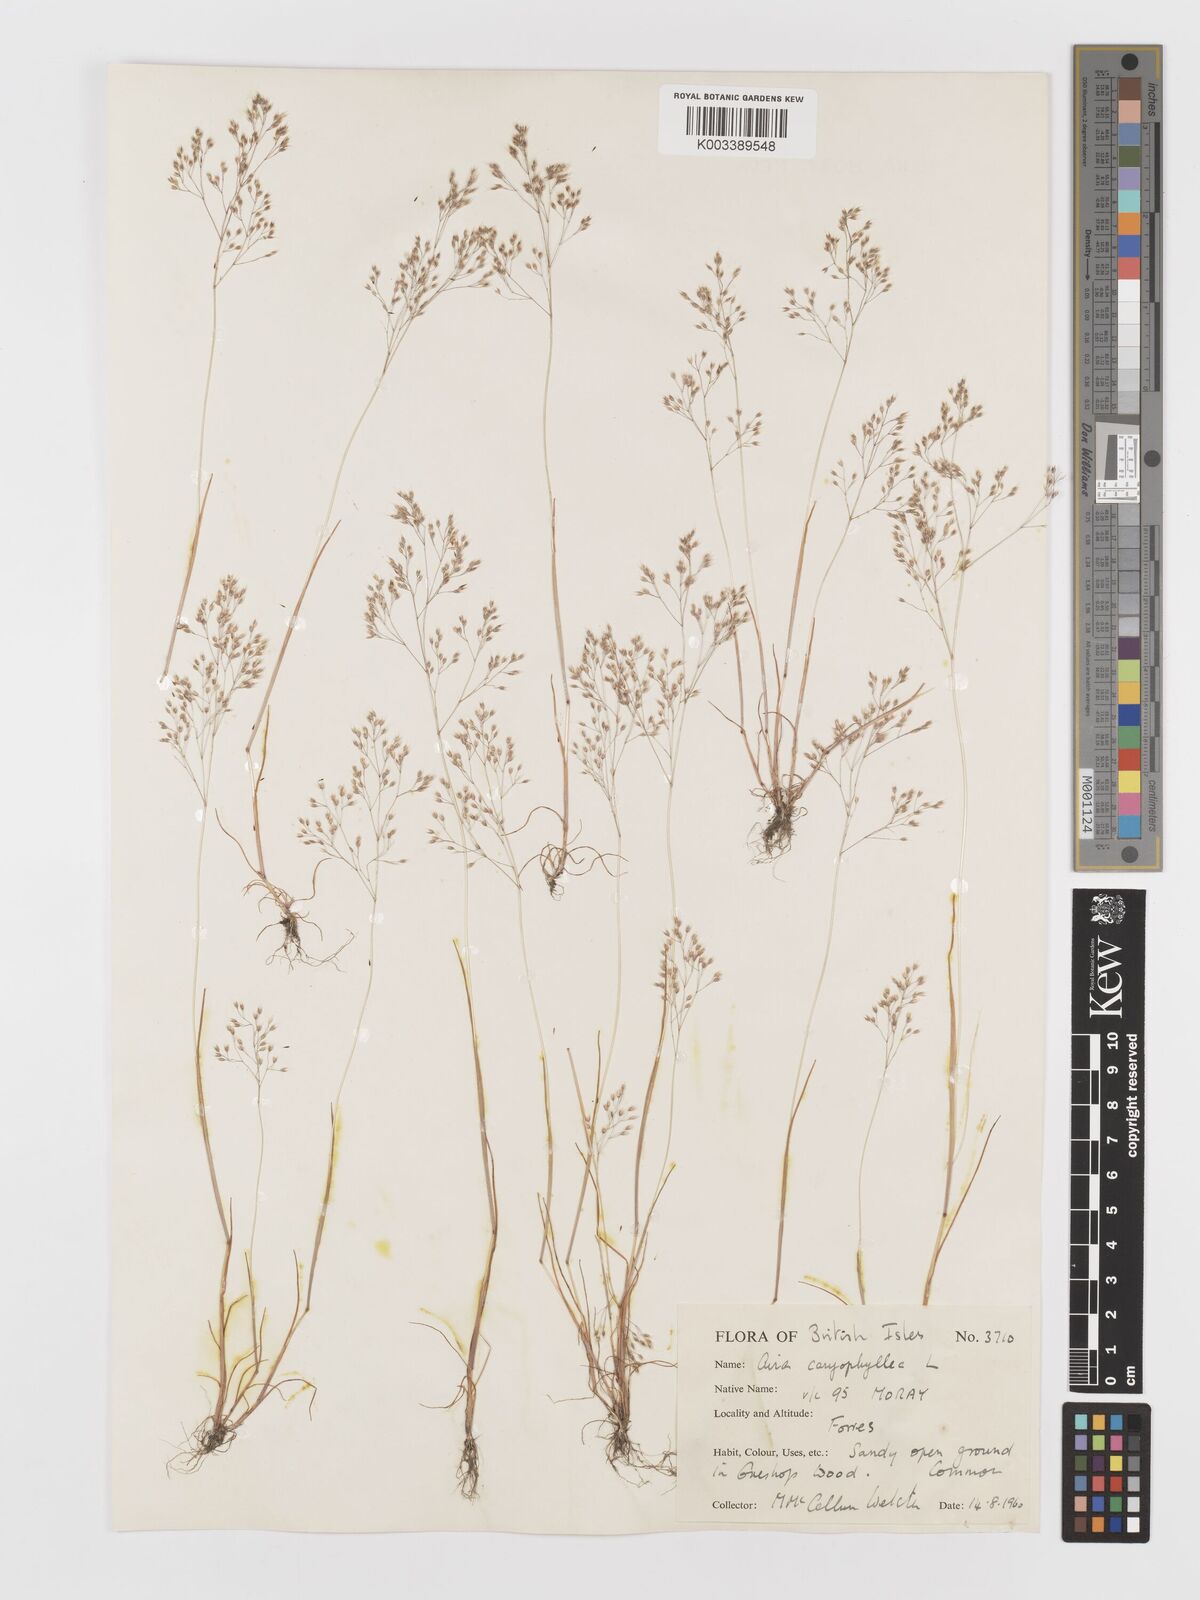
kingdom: Plantae
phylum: Tracheophyta
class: Liliopsida
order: Poales
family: Poaceae
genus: Aira
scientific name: Aira caryophyllea
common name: Silver hairgrass
